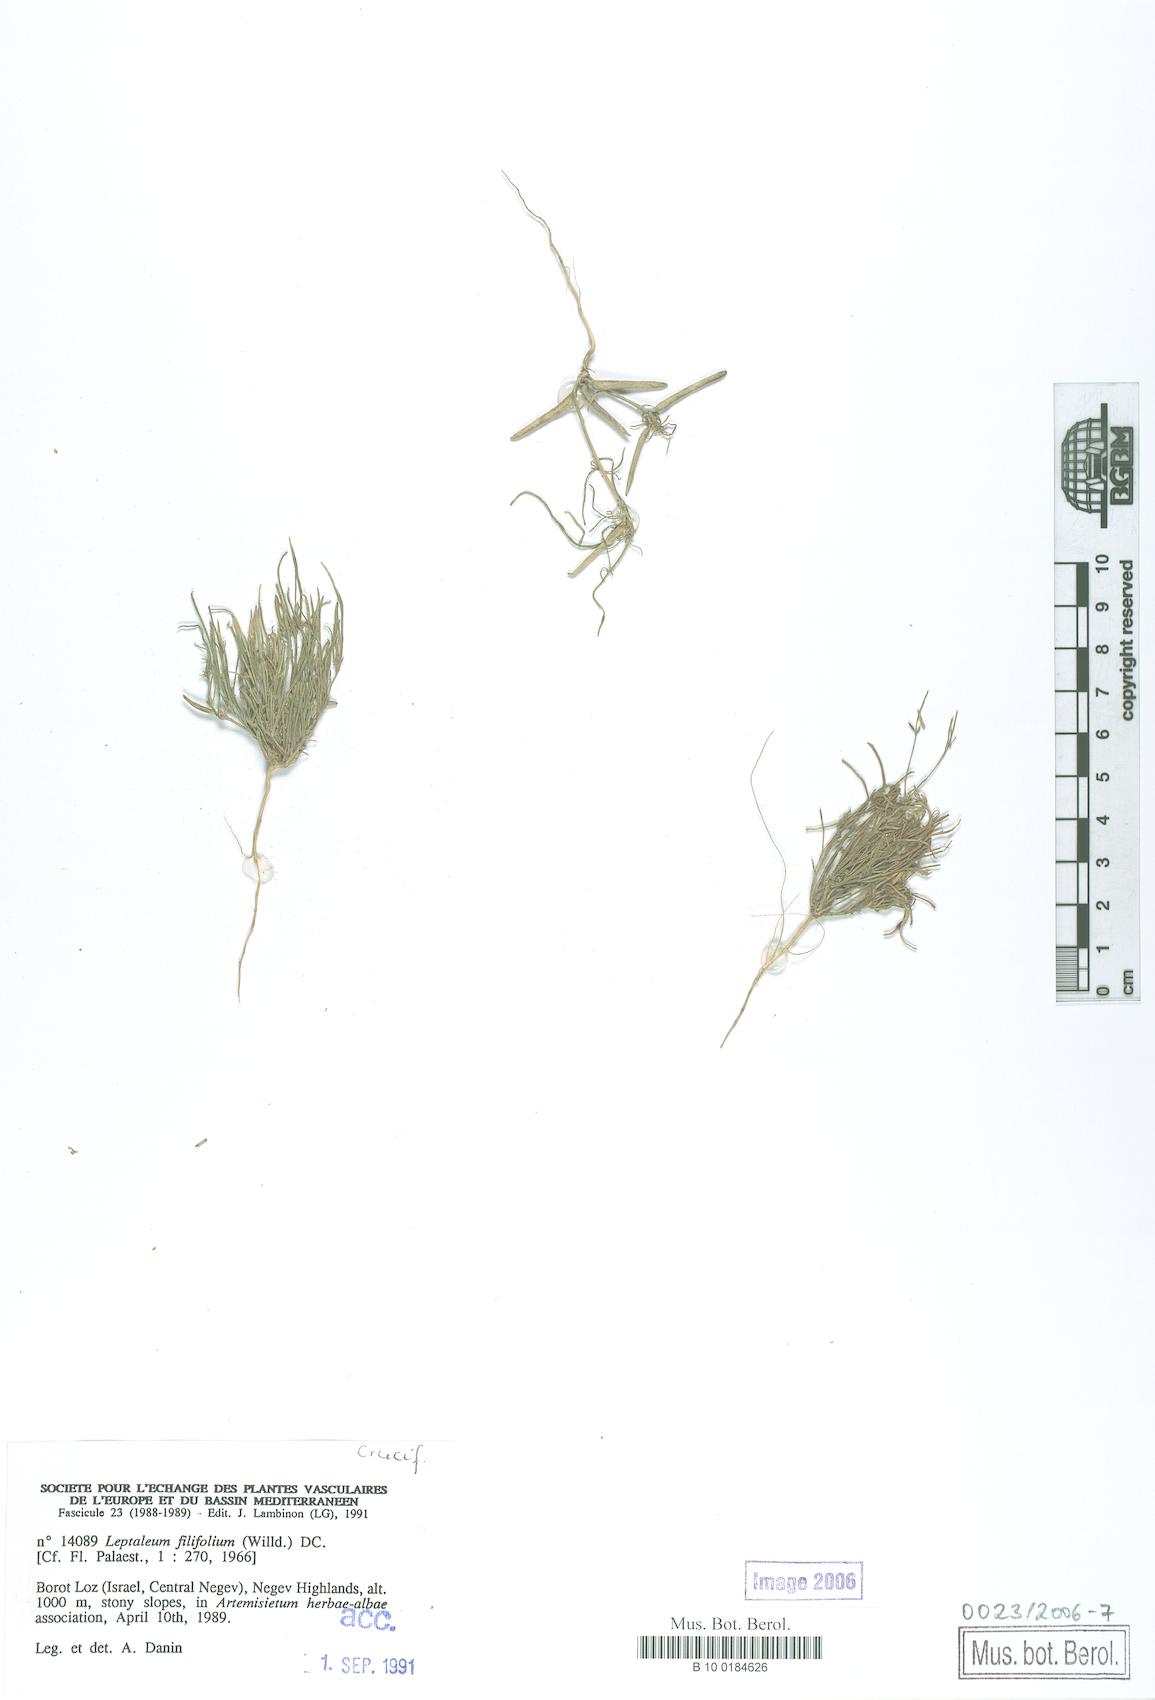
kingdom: Plantae
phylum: Tracheophyta
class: Magnoliopsida
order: Brassicales
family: Brassicaceae
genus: Leptaleum
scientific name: Leptaleum filifolium
